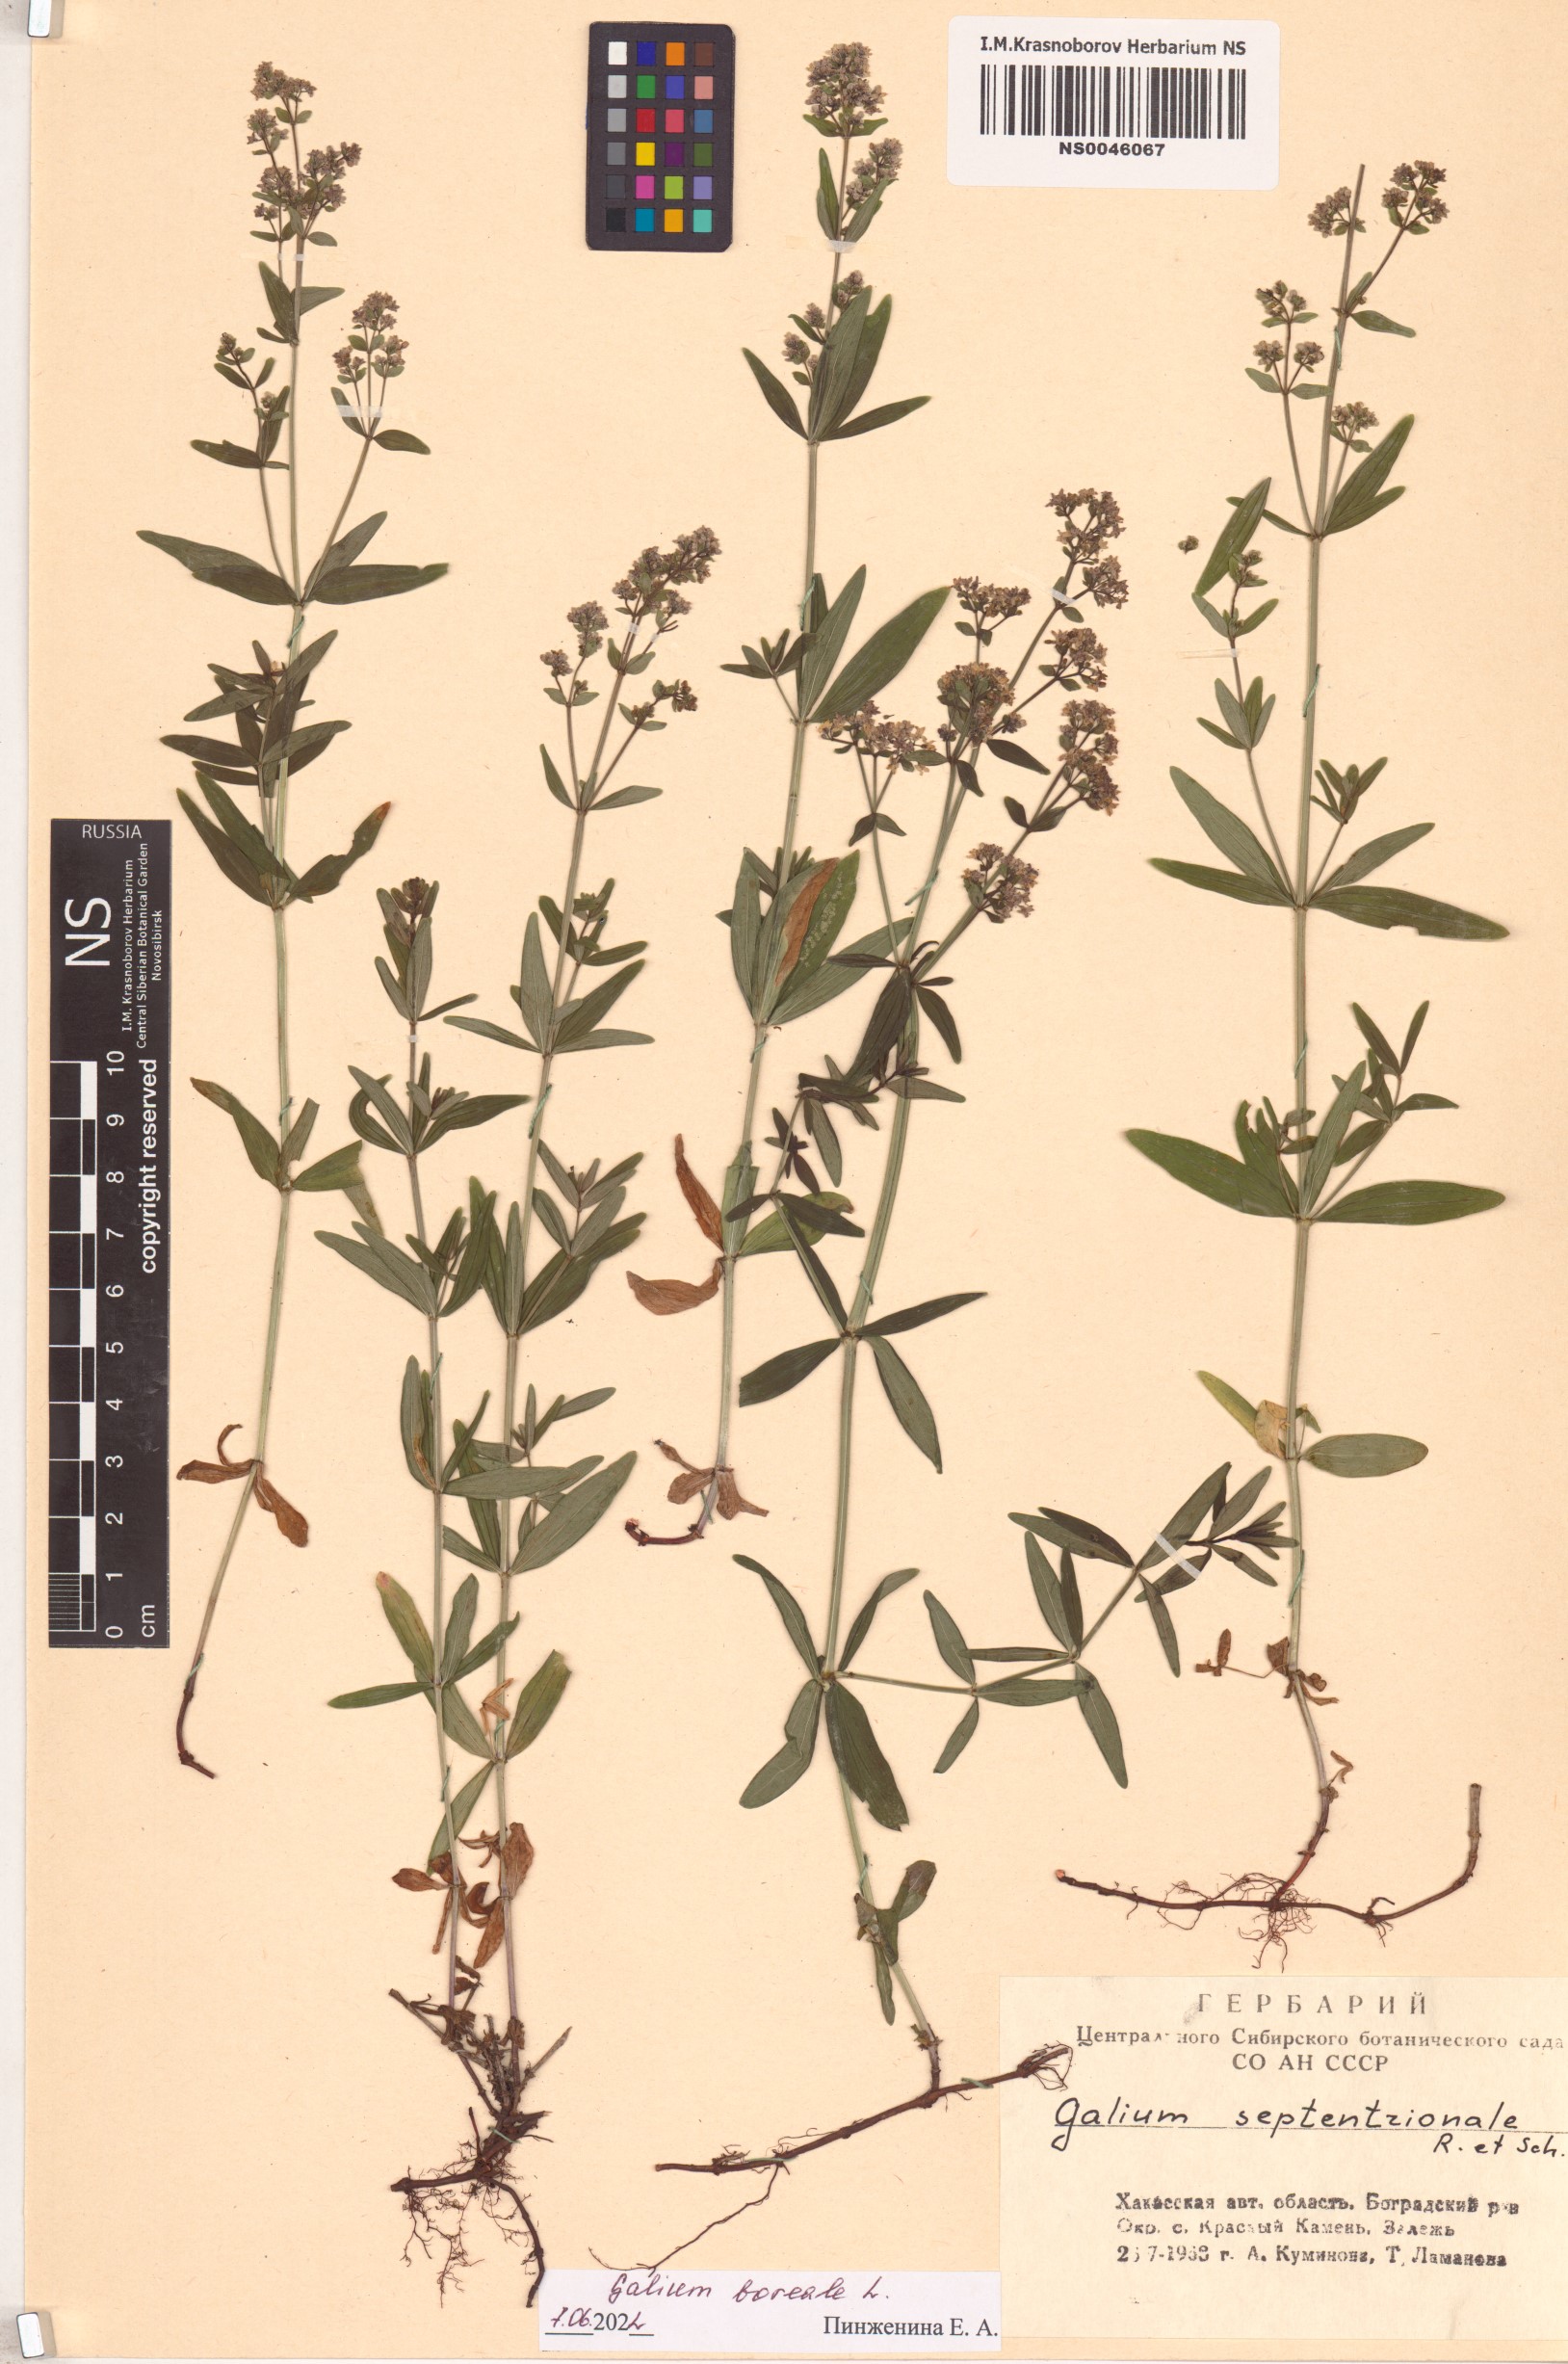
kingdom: Plantae
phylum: Tracheophyta
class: Magnoliopsida
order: Gentianales
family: Rubiaceae
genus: Galium
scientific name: Galium boreale
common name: Northern bedstraw
